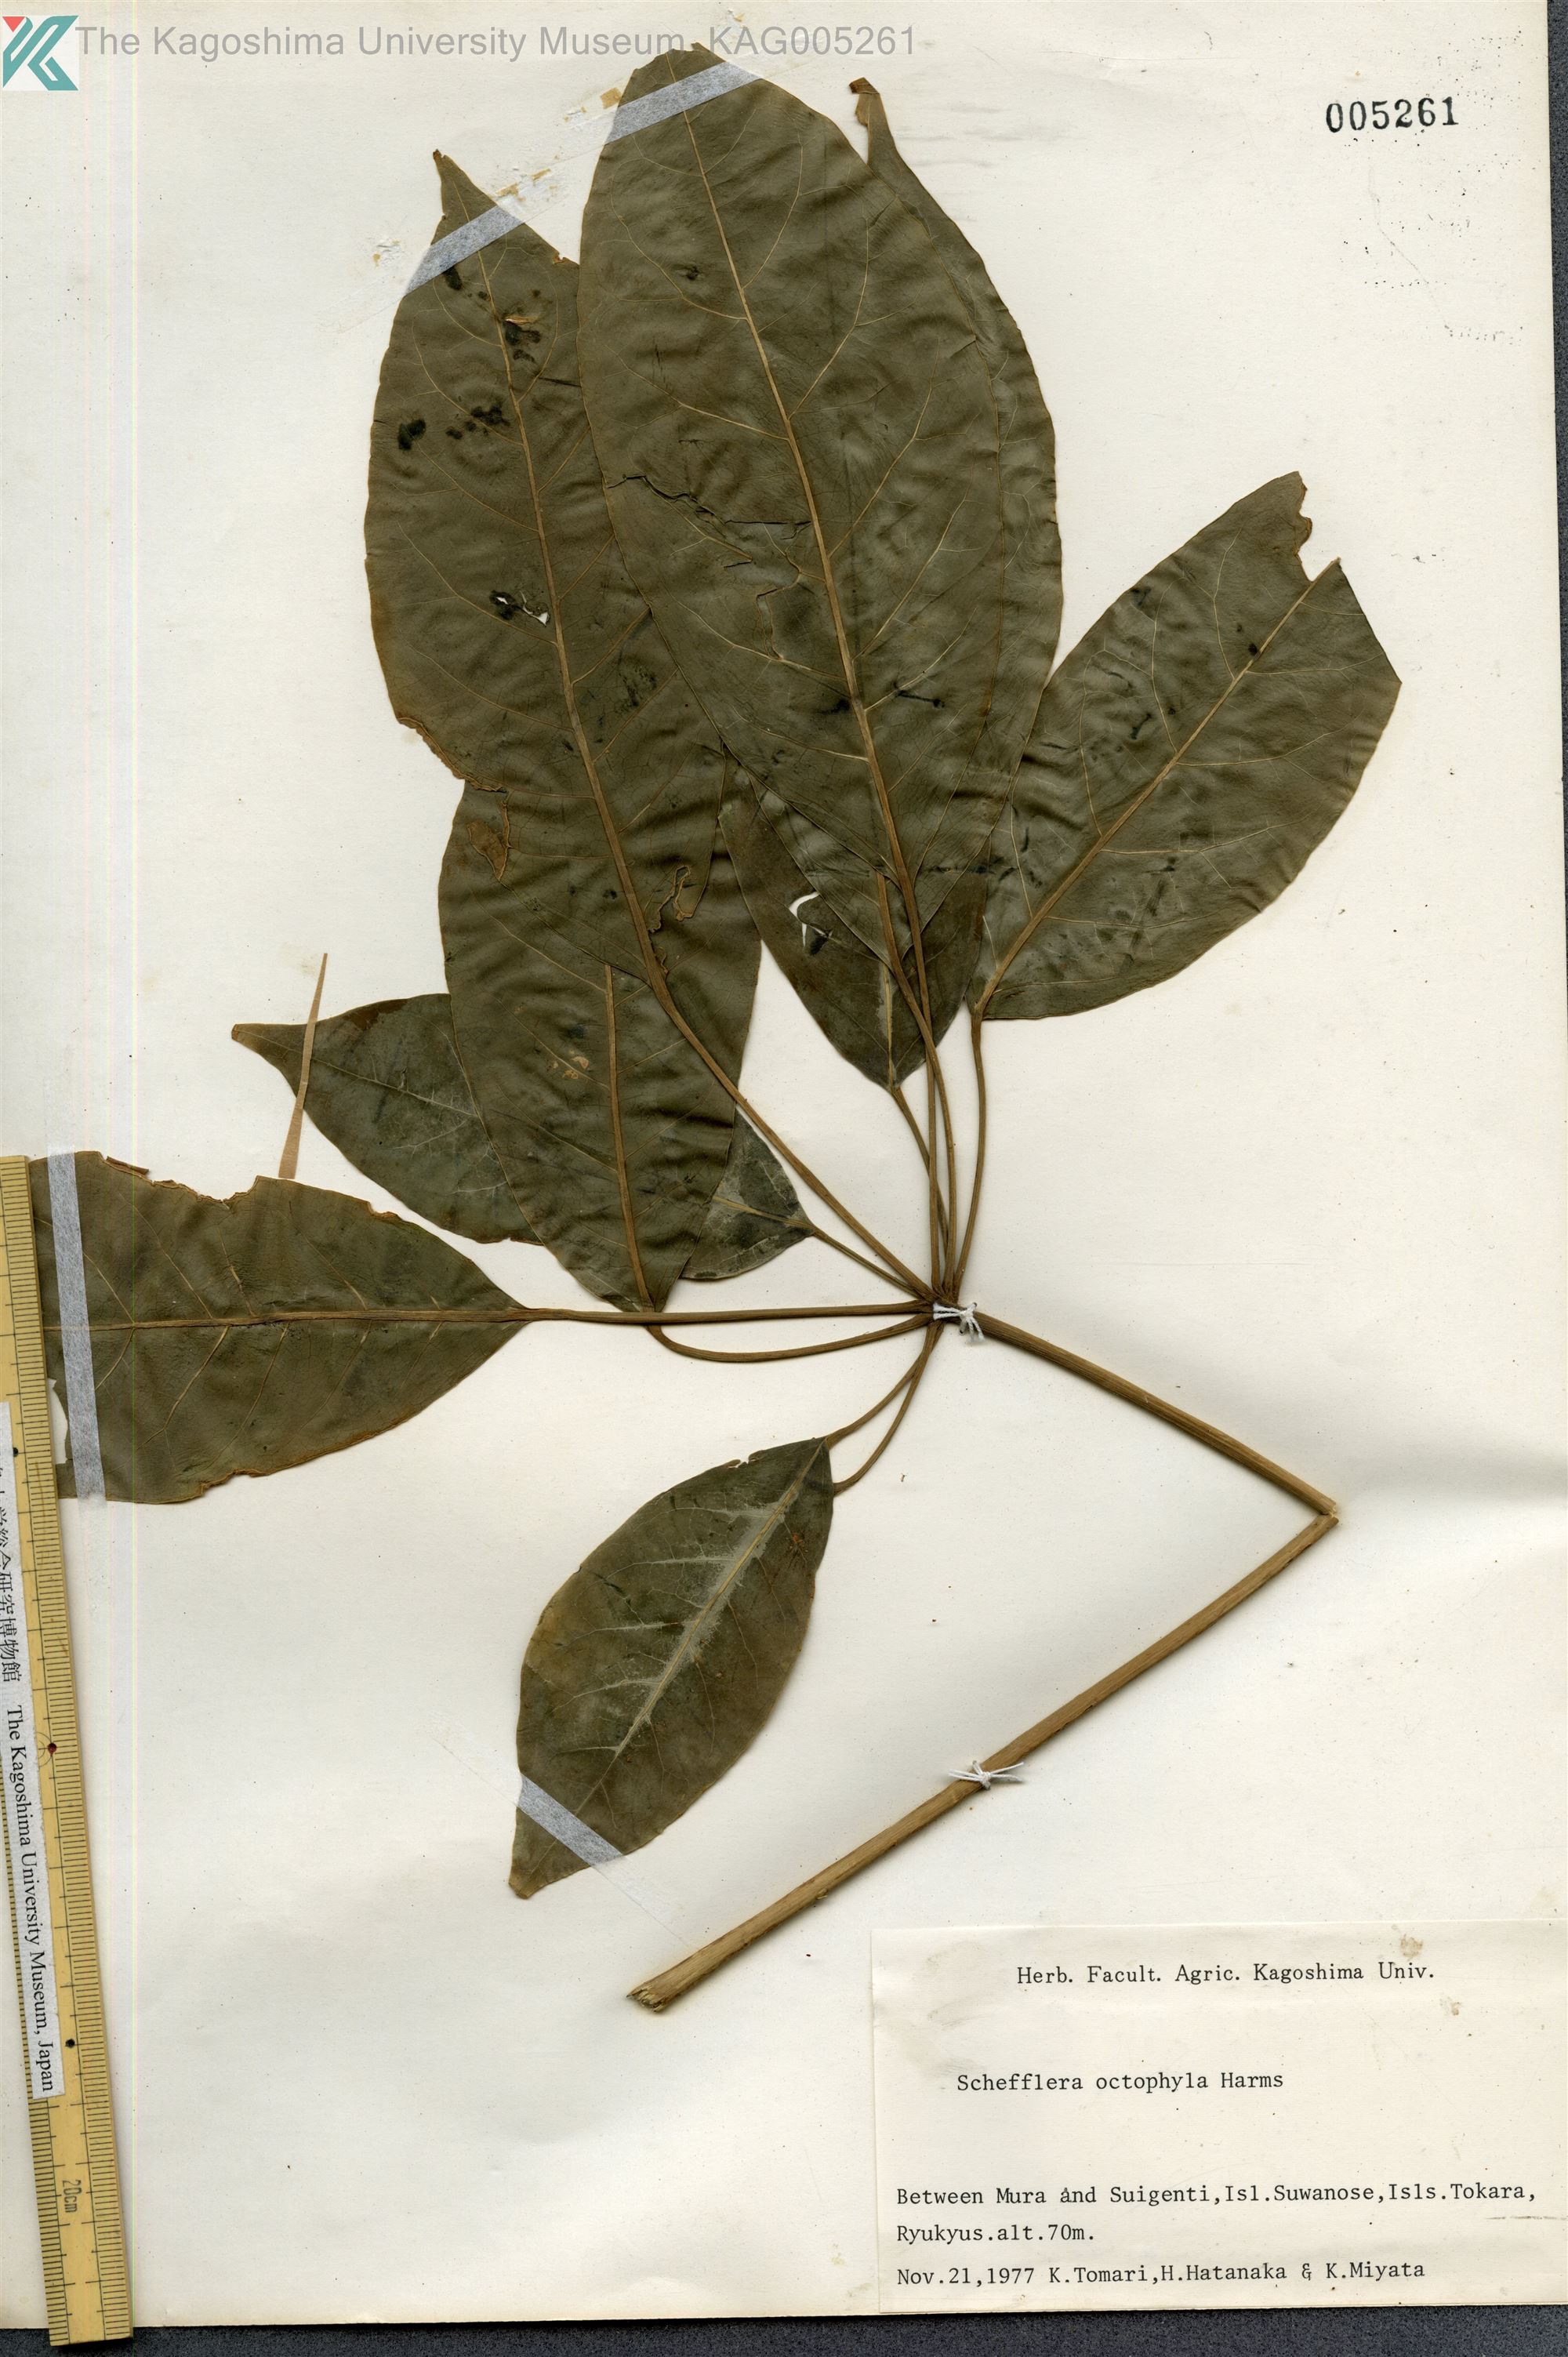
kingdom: Plantae
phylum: Tracheophyta
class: Magnoliopsida
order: Apiales
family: Araliaceae
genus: Heptapleurum
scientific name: Heptapleurum heptaphyllum
